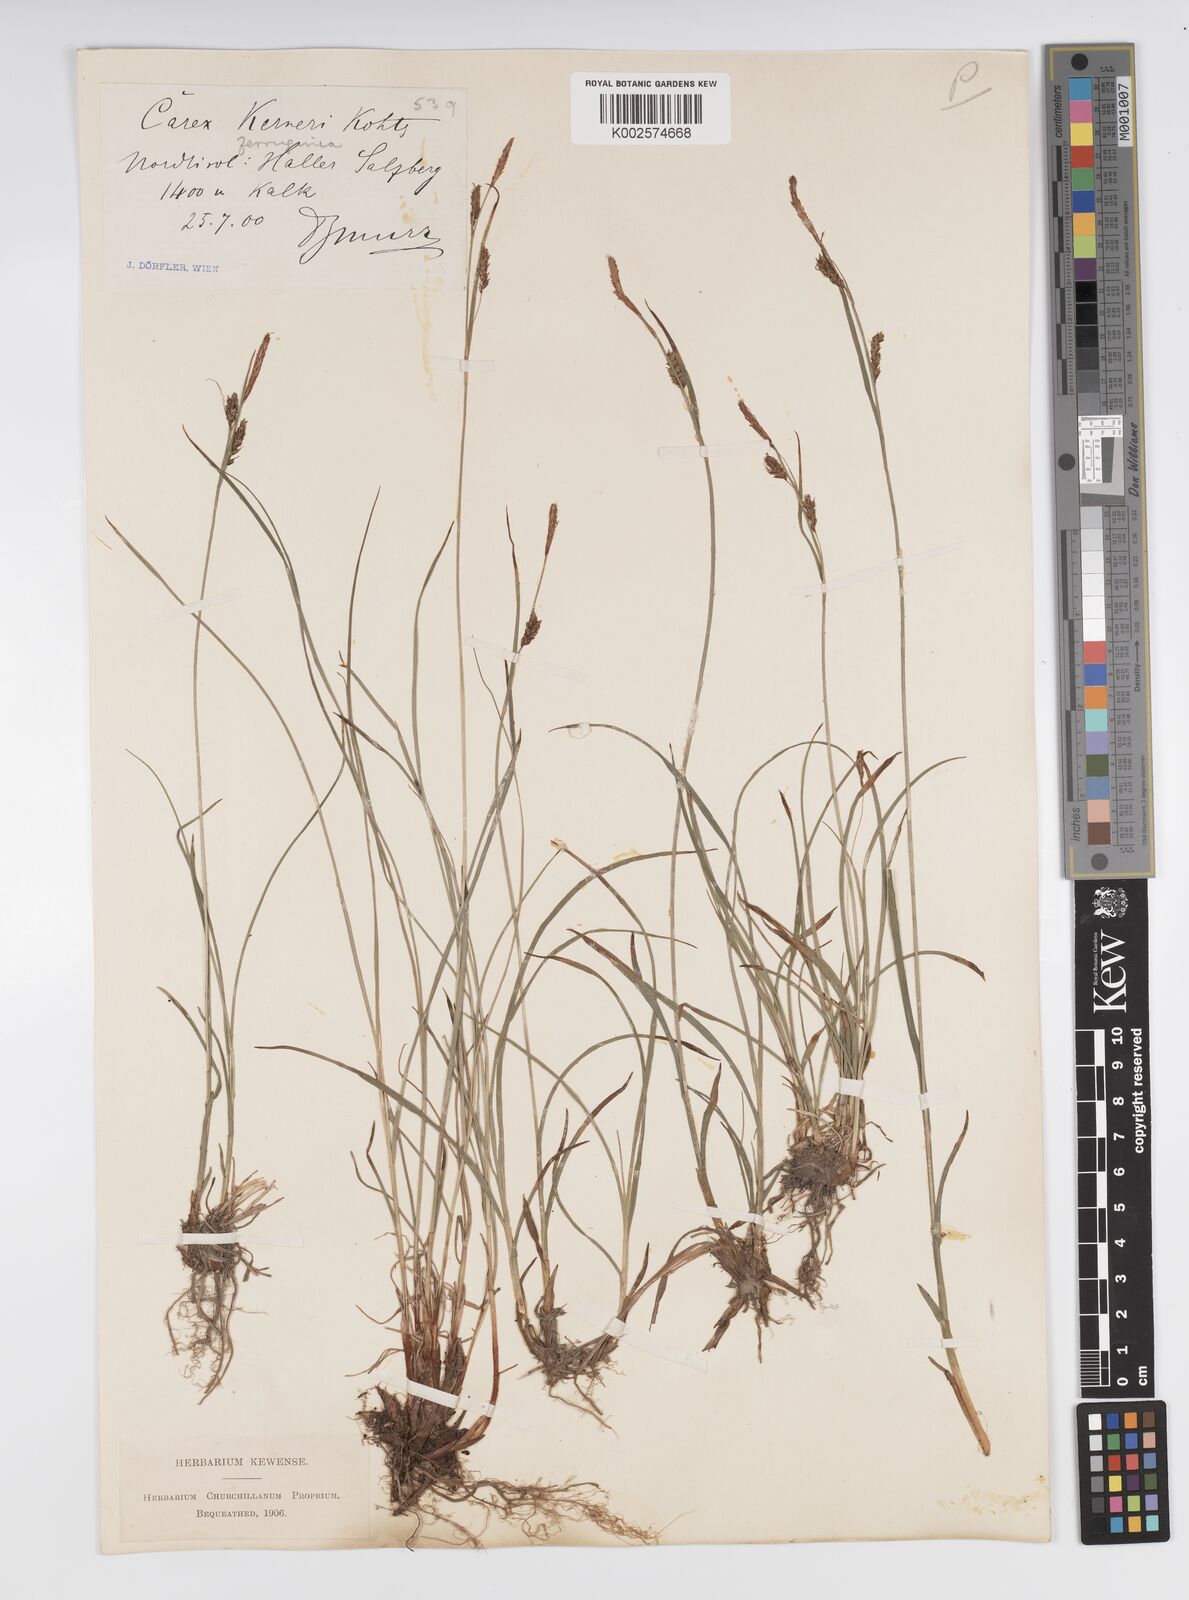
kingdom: Plantae
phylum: Tracheophyta
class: Liliopsida
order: Poales
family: Cyperaceae
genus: Carex
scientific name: Carex ferruginea
